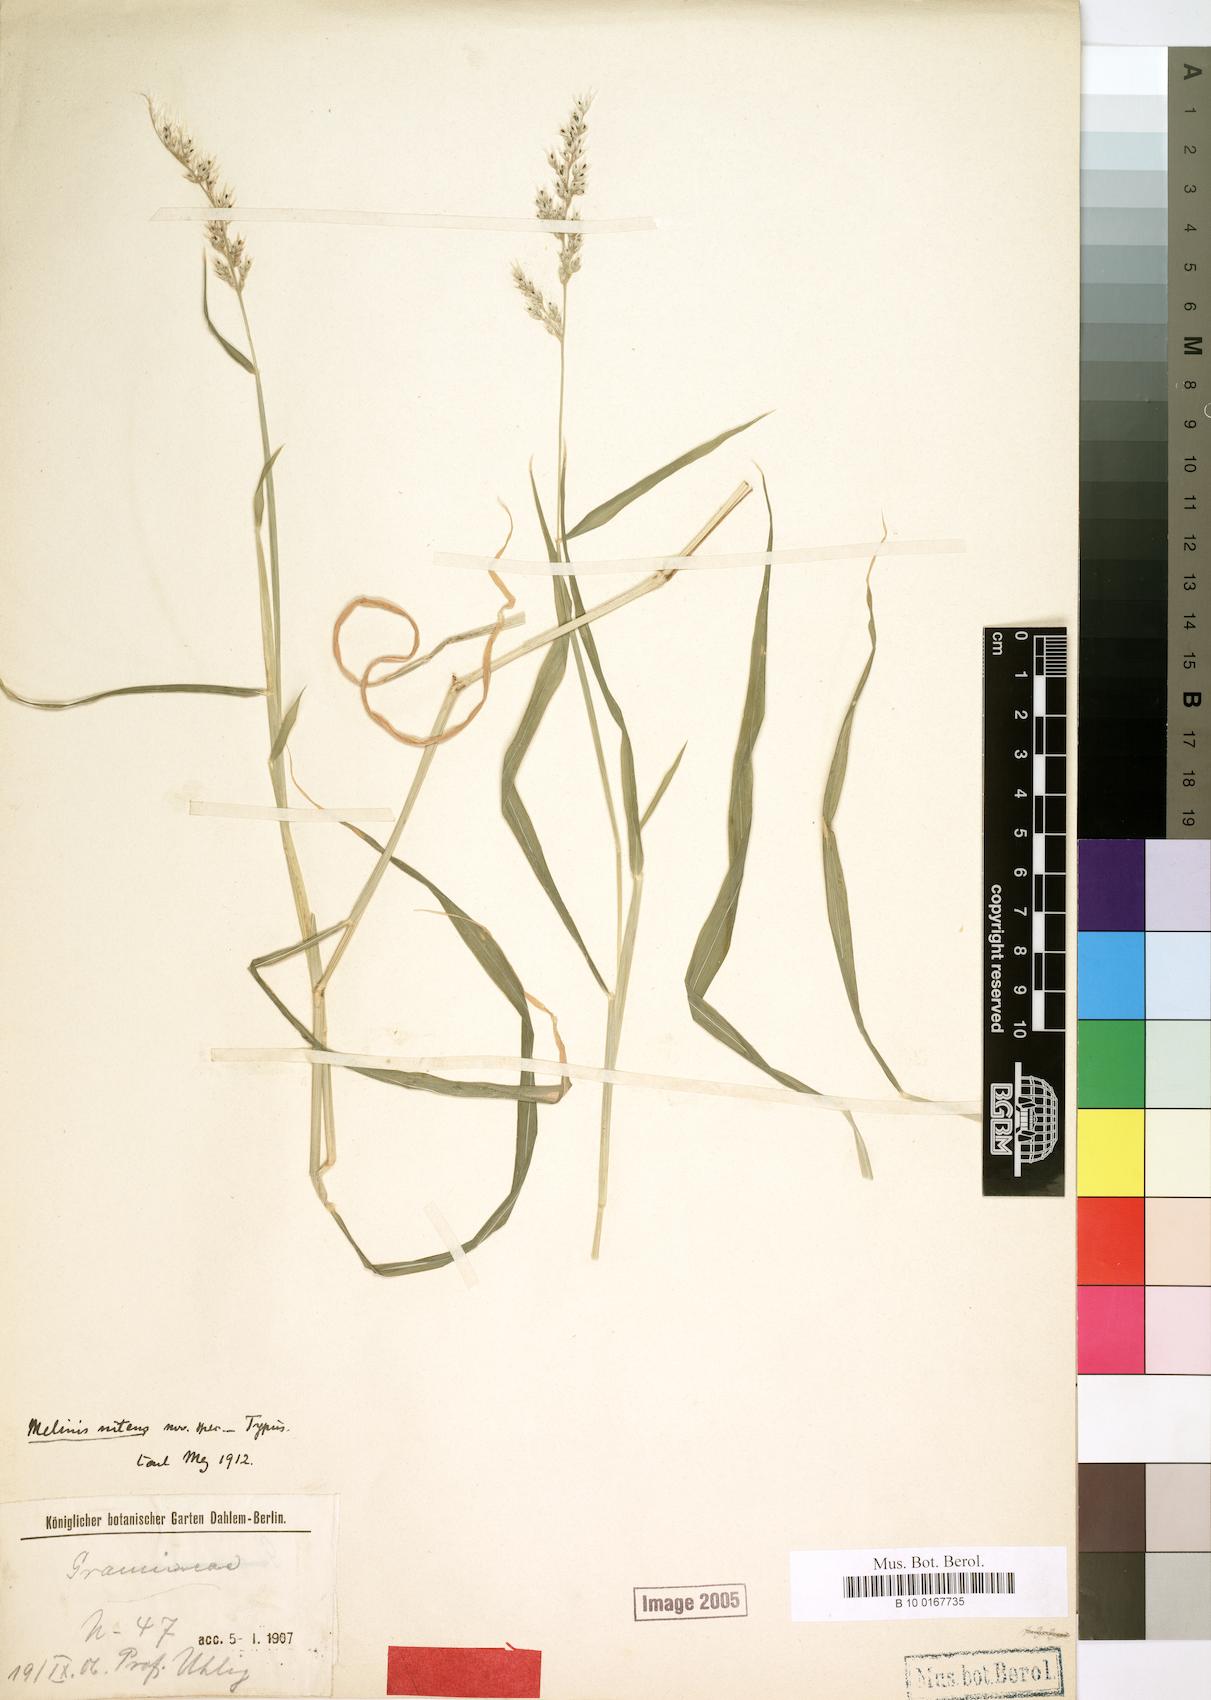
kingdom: Plantae
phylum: Tracheophyta
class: Liliopsida
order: Poales
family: Poaceae
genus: Melinis
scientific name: Melinis repens
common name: Rose natal grass
